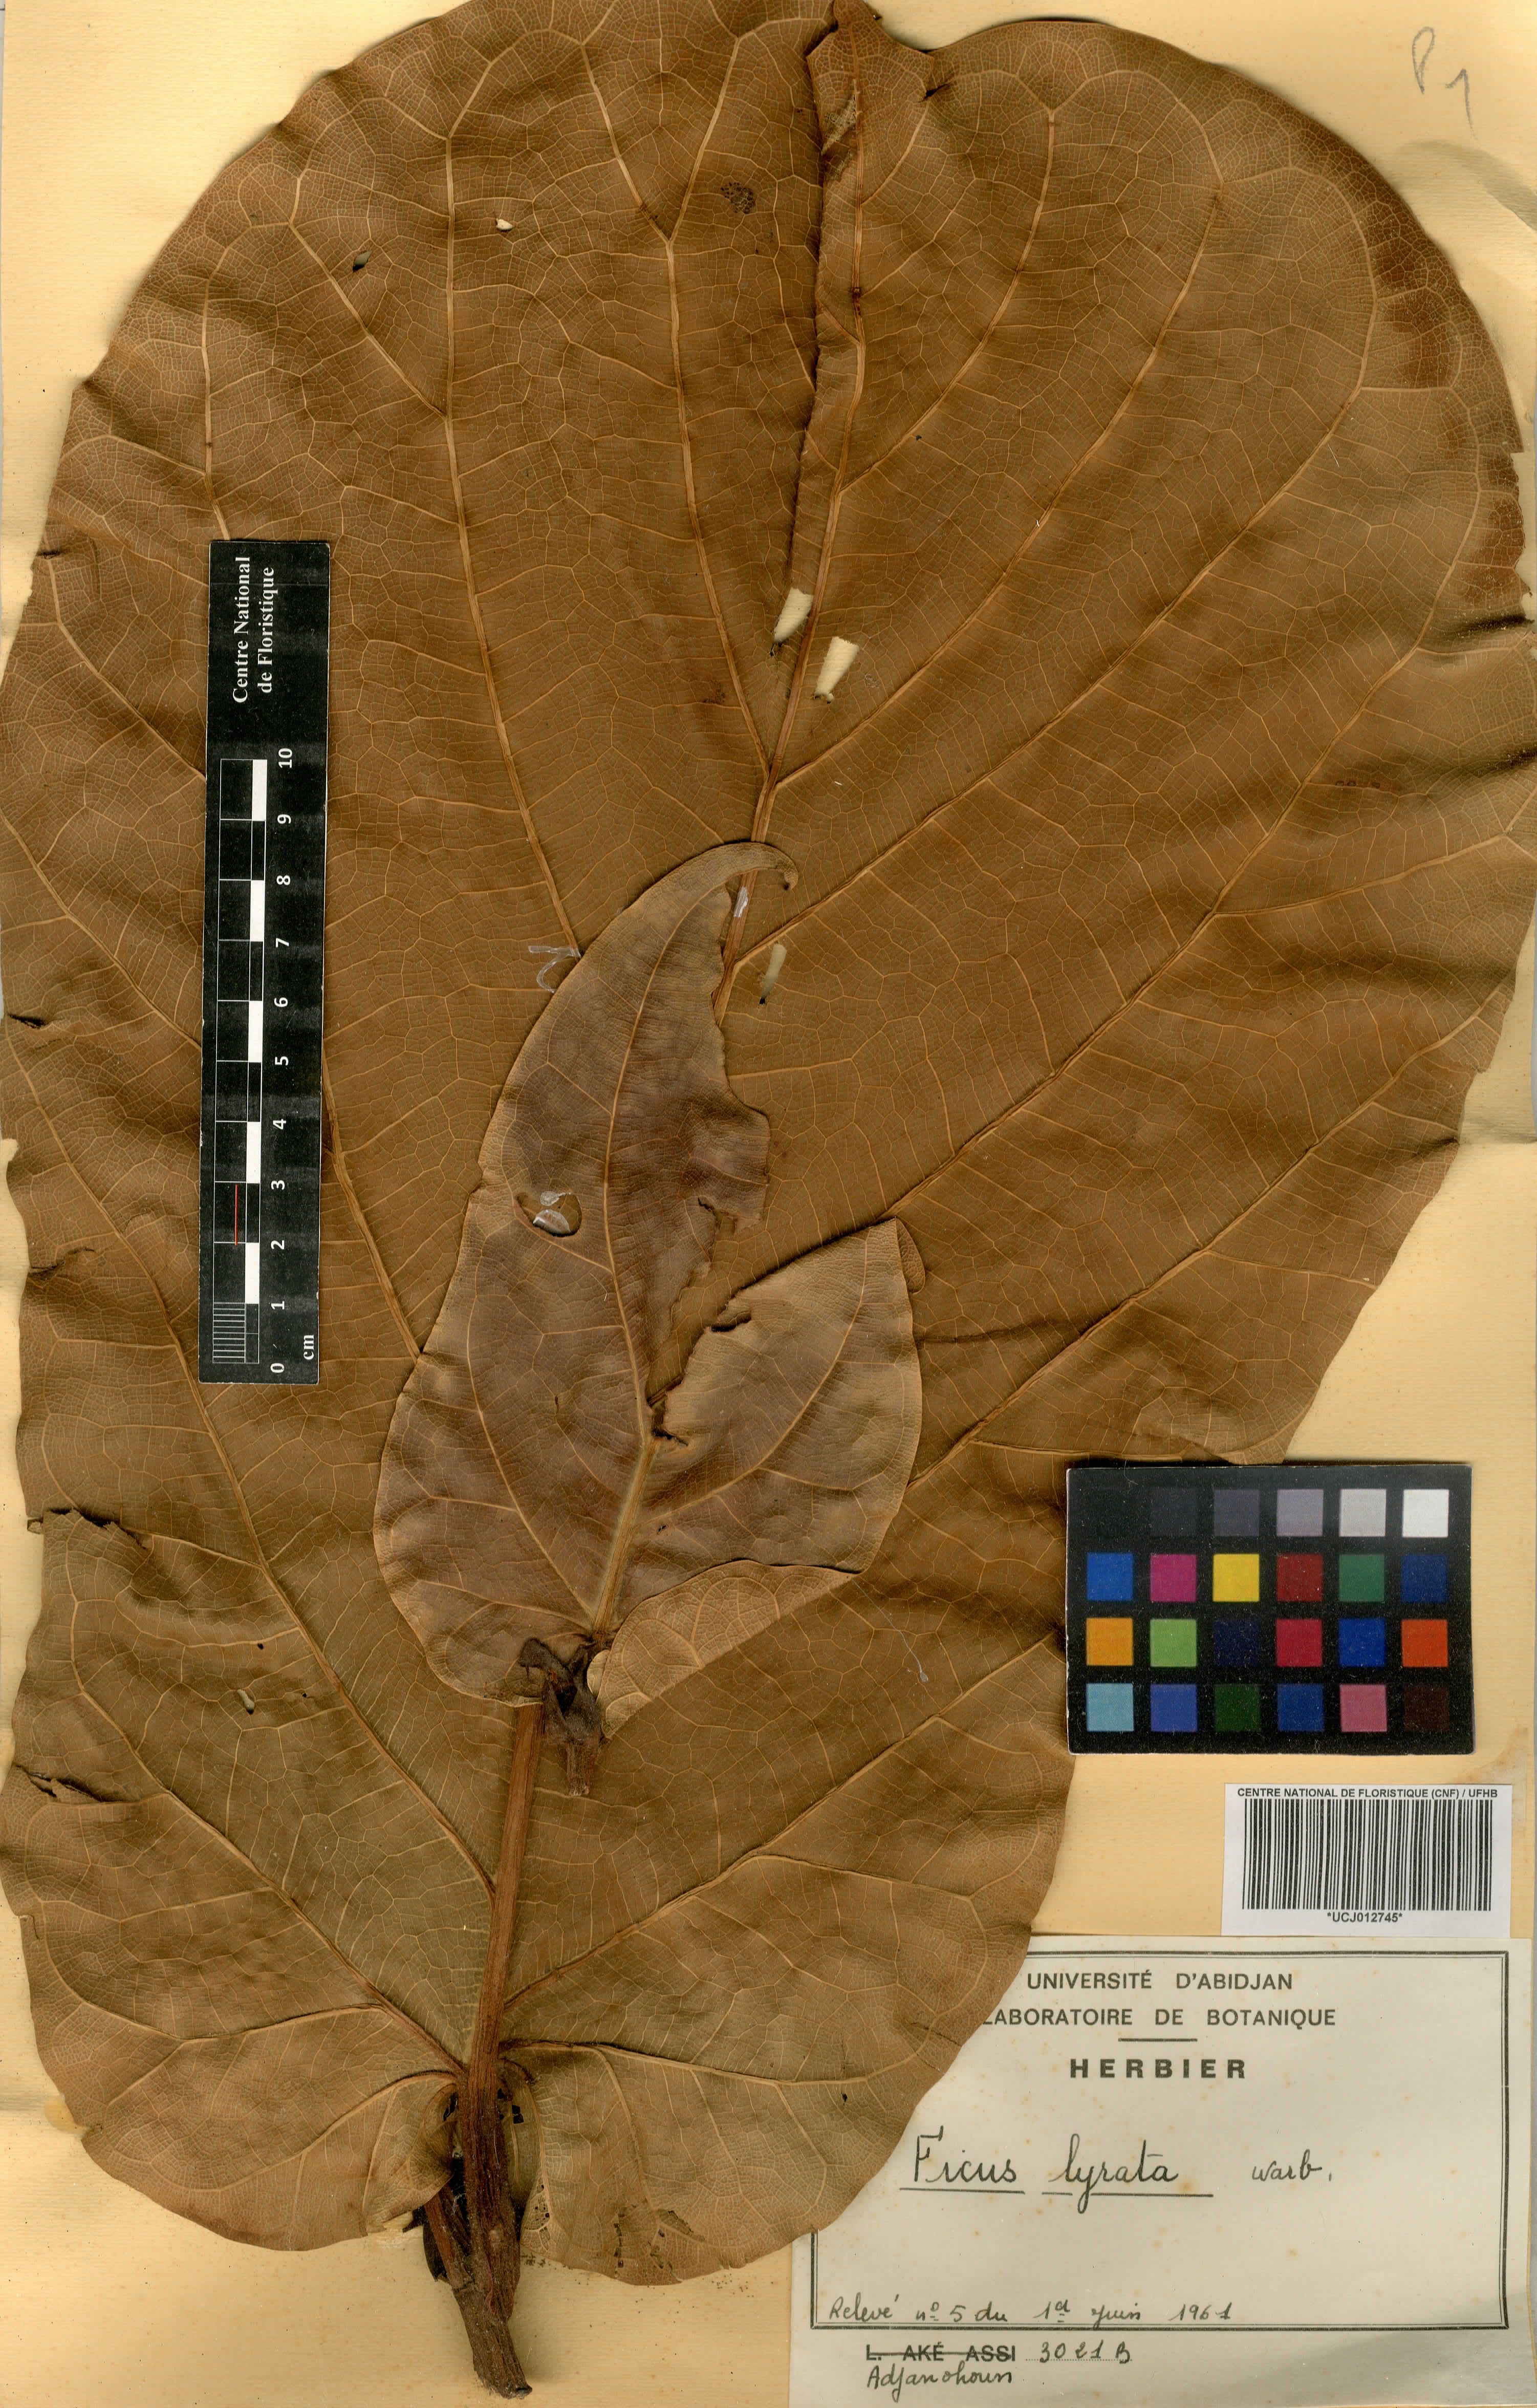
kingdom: Plantae
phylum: Tracheophyta
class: Magnoliopsida
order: Rosales
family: Moraceae
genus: Ficus
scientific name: Ficus lyrata
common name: Fiddle-leaf fig
